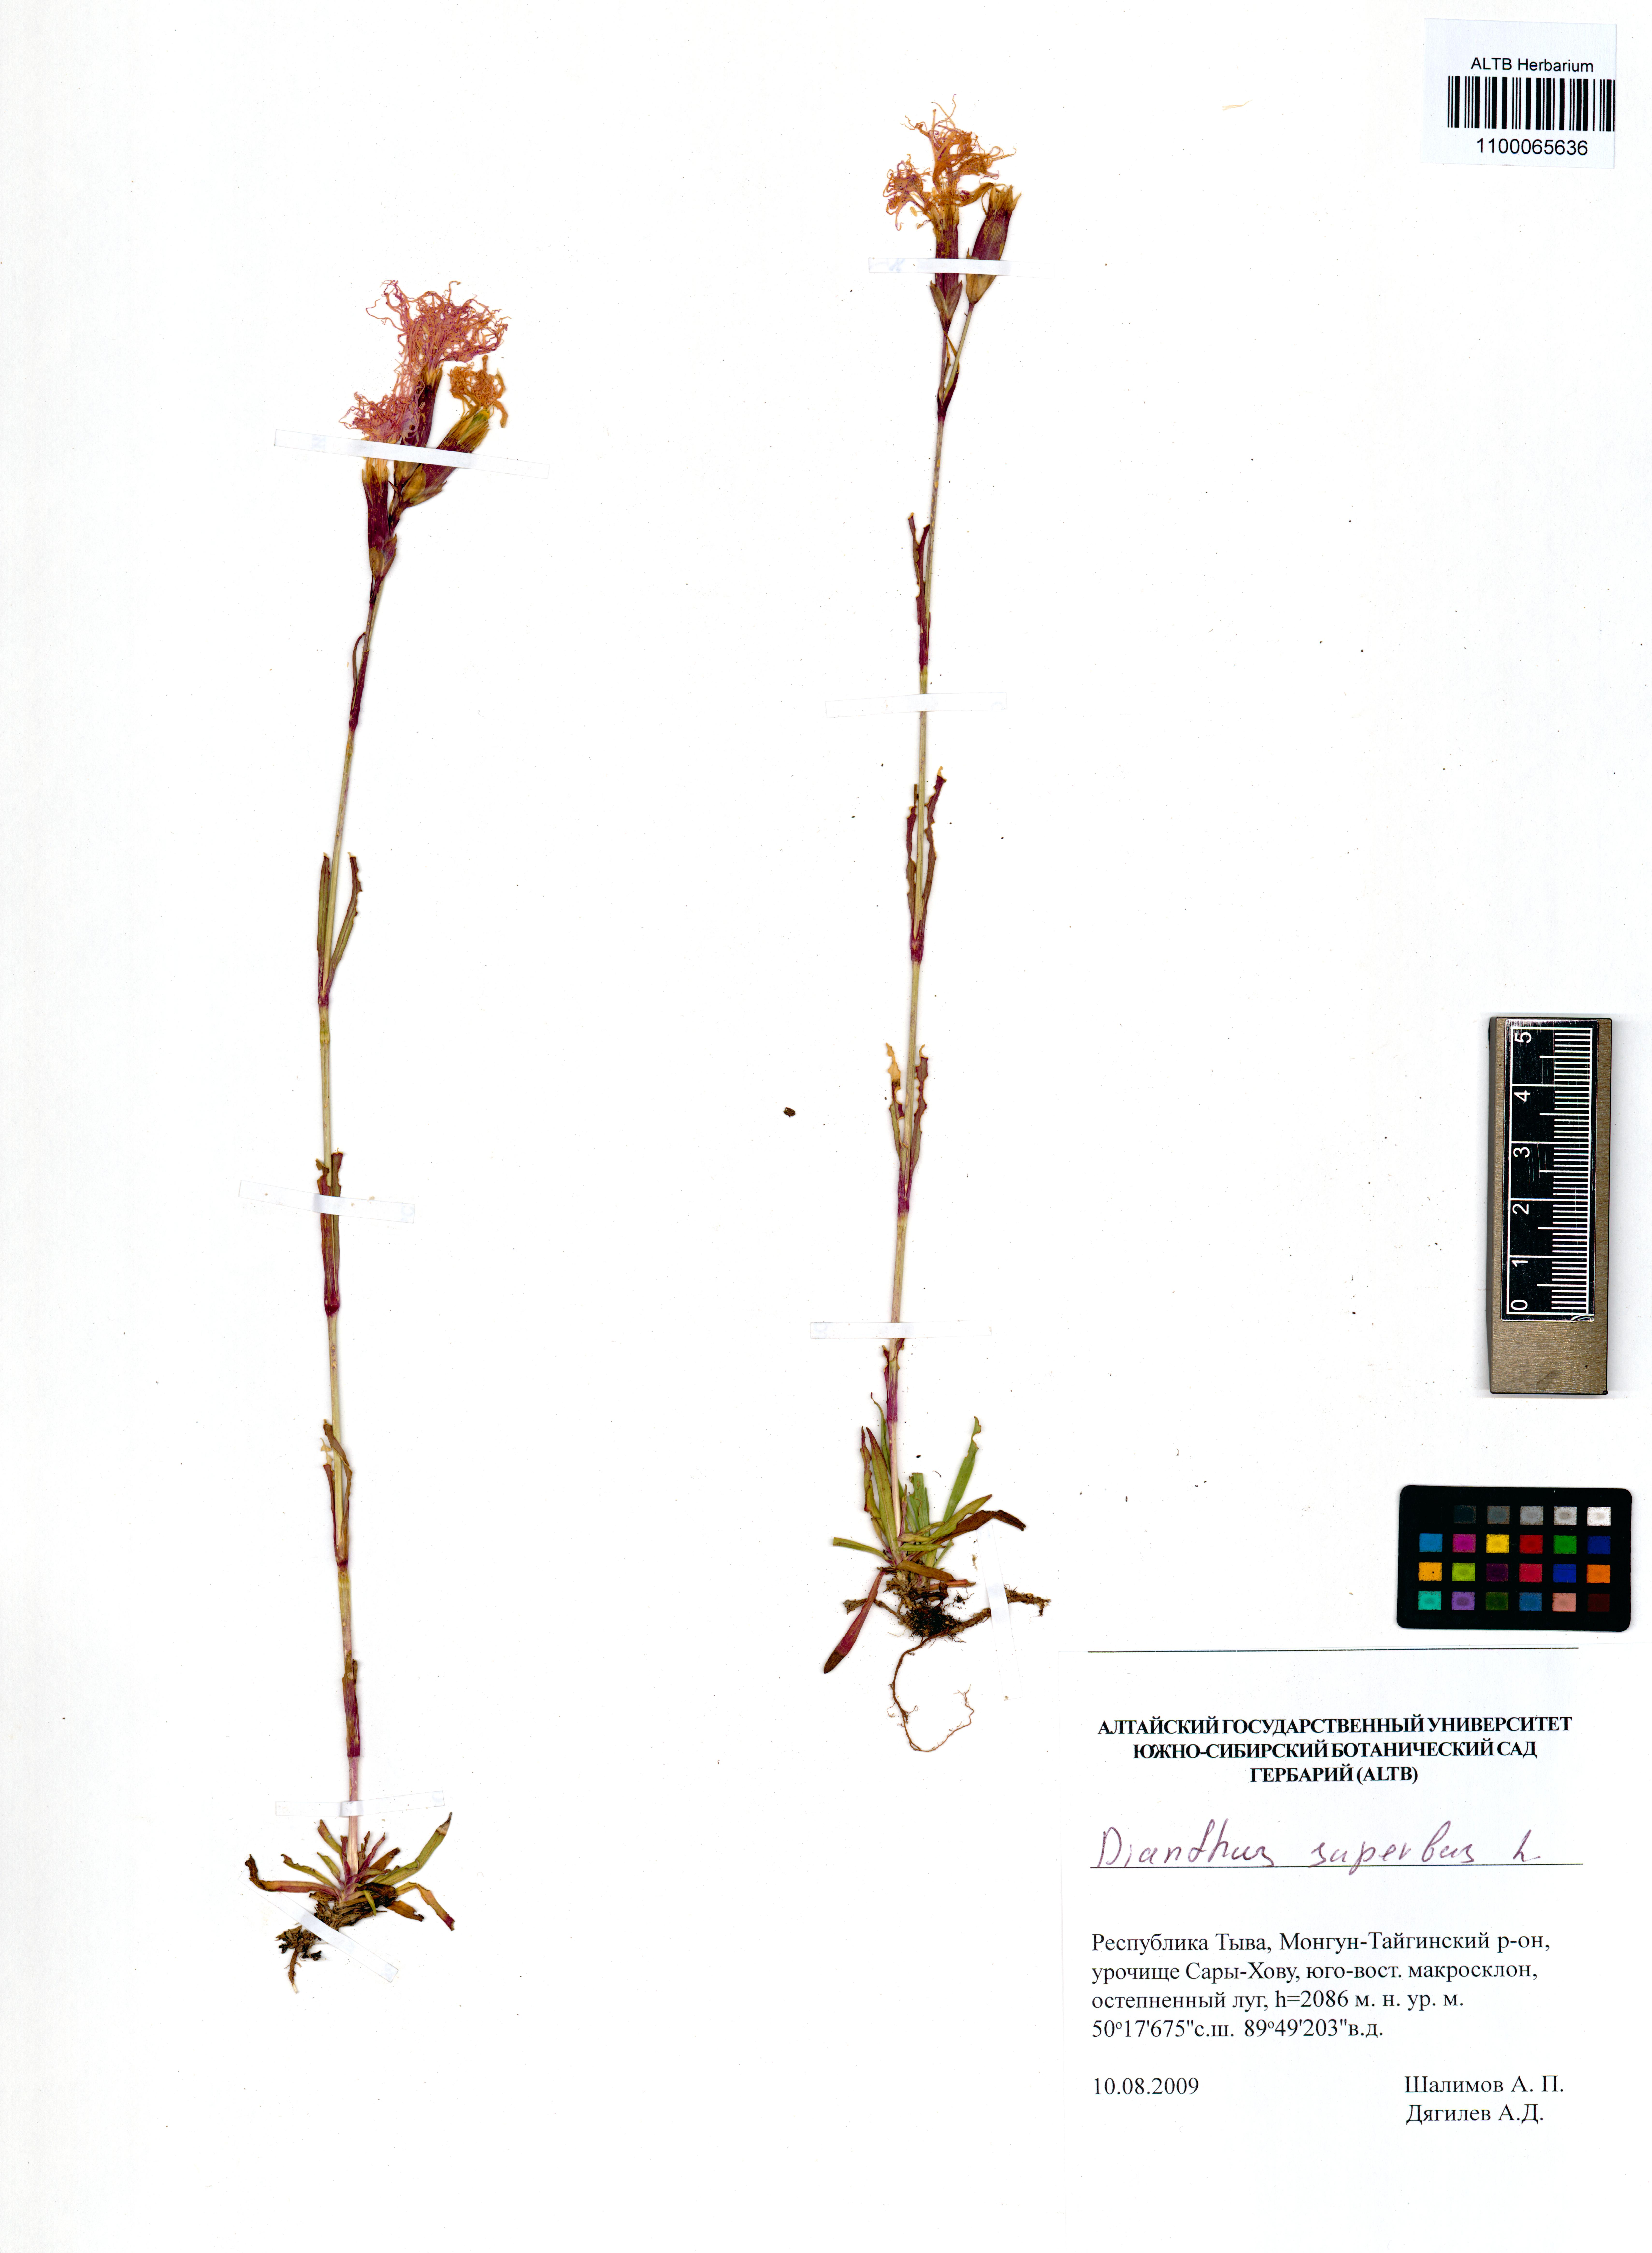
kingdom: Plantae
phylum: Tracheophyta
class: Magnoliopsida
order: Caryophyllales
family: Caryophyllaceae
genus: Dianthus
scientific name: Dianthus superbus
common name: Fringed pink
